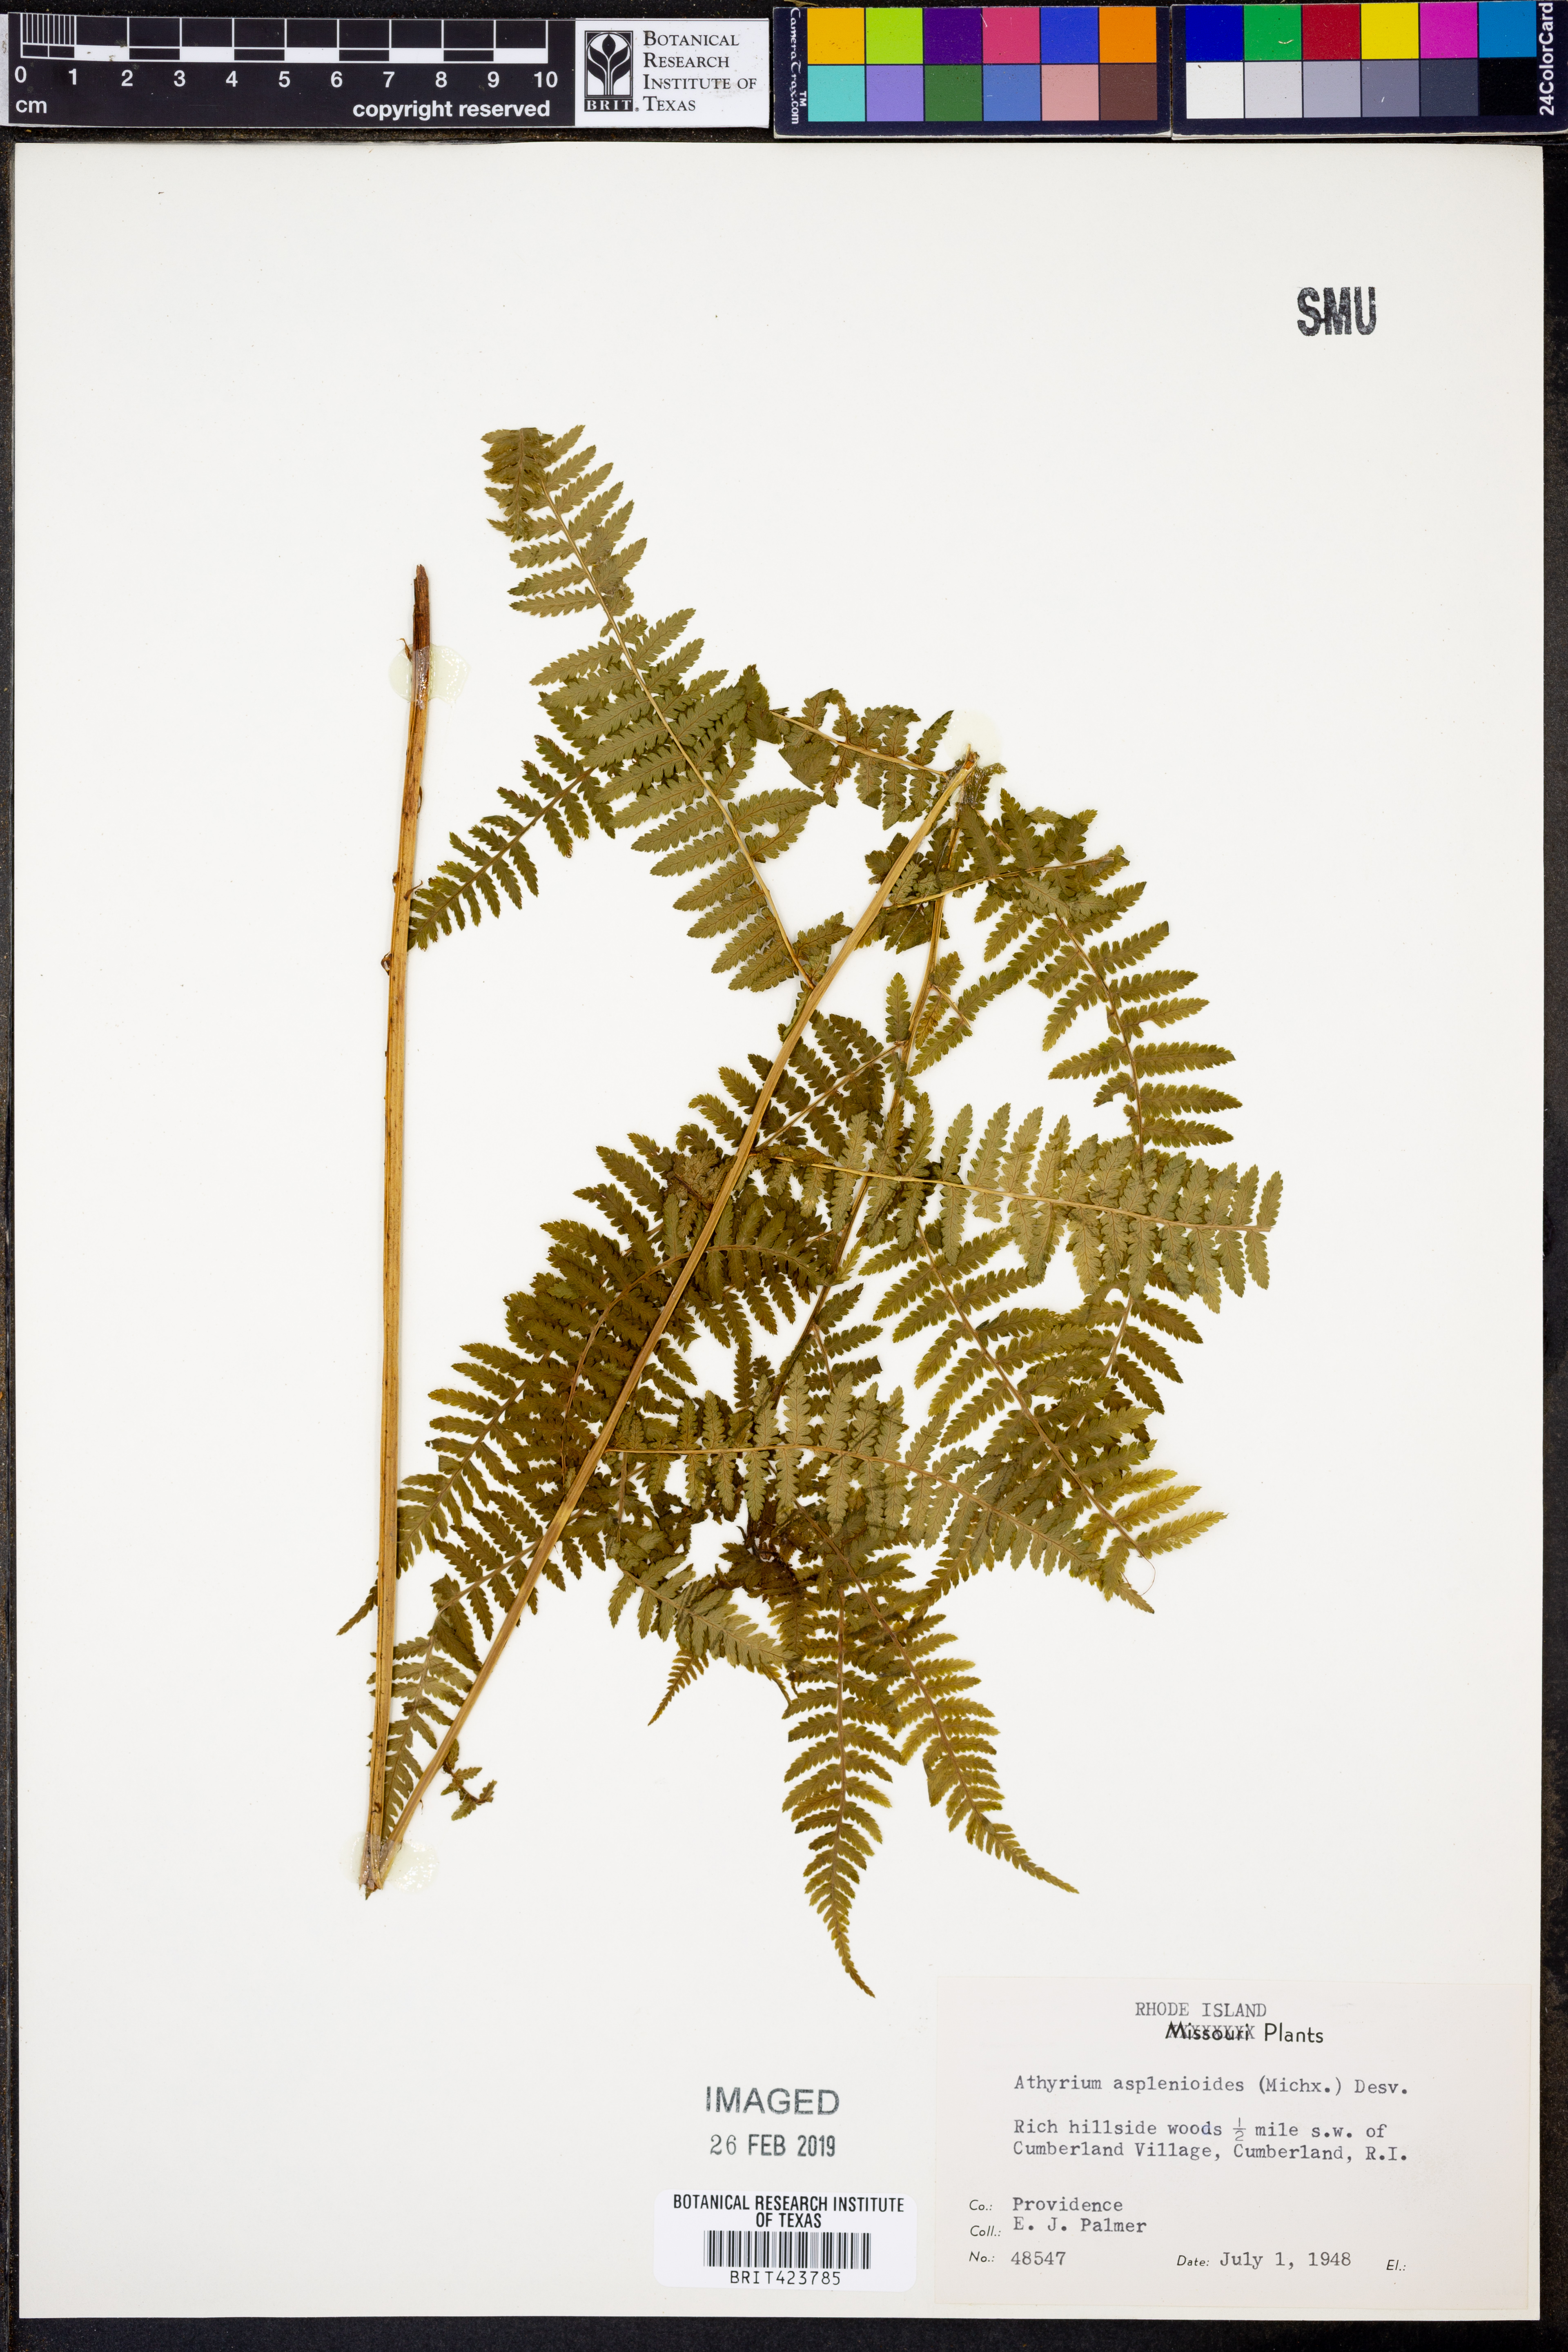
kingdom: Plantae
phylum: Tracheophyta
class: Polypodiopsida
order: Polypodiales
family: Athyriaceae
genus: Athyrium
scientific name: Athyrium asplenioides
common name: Southern lady fern
